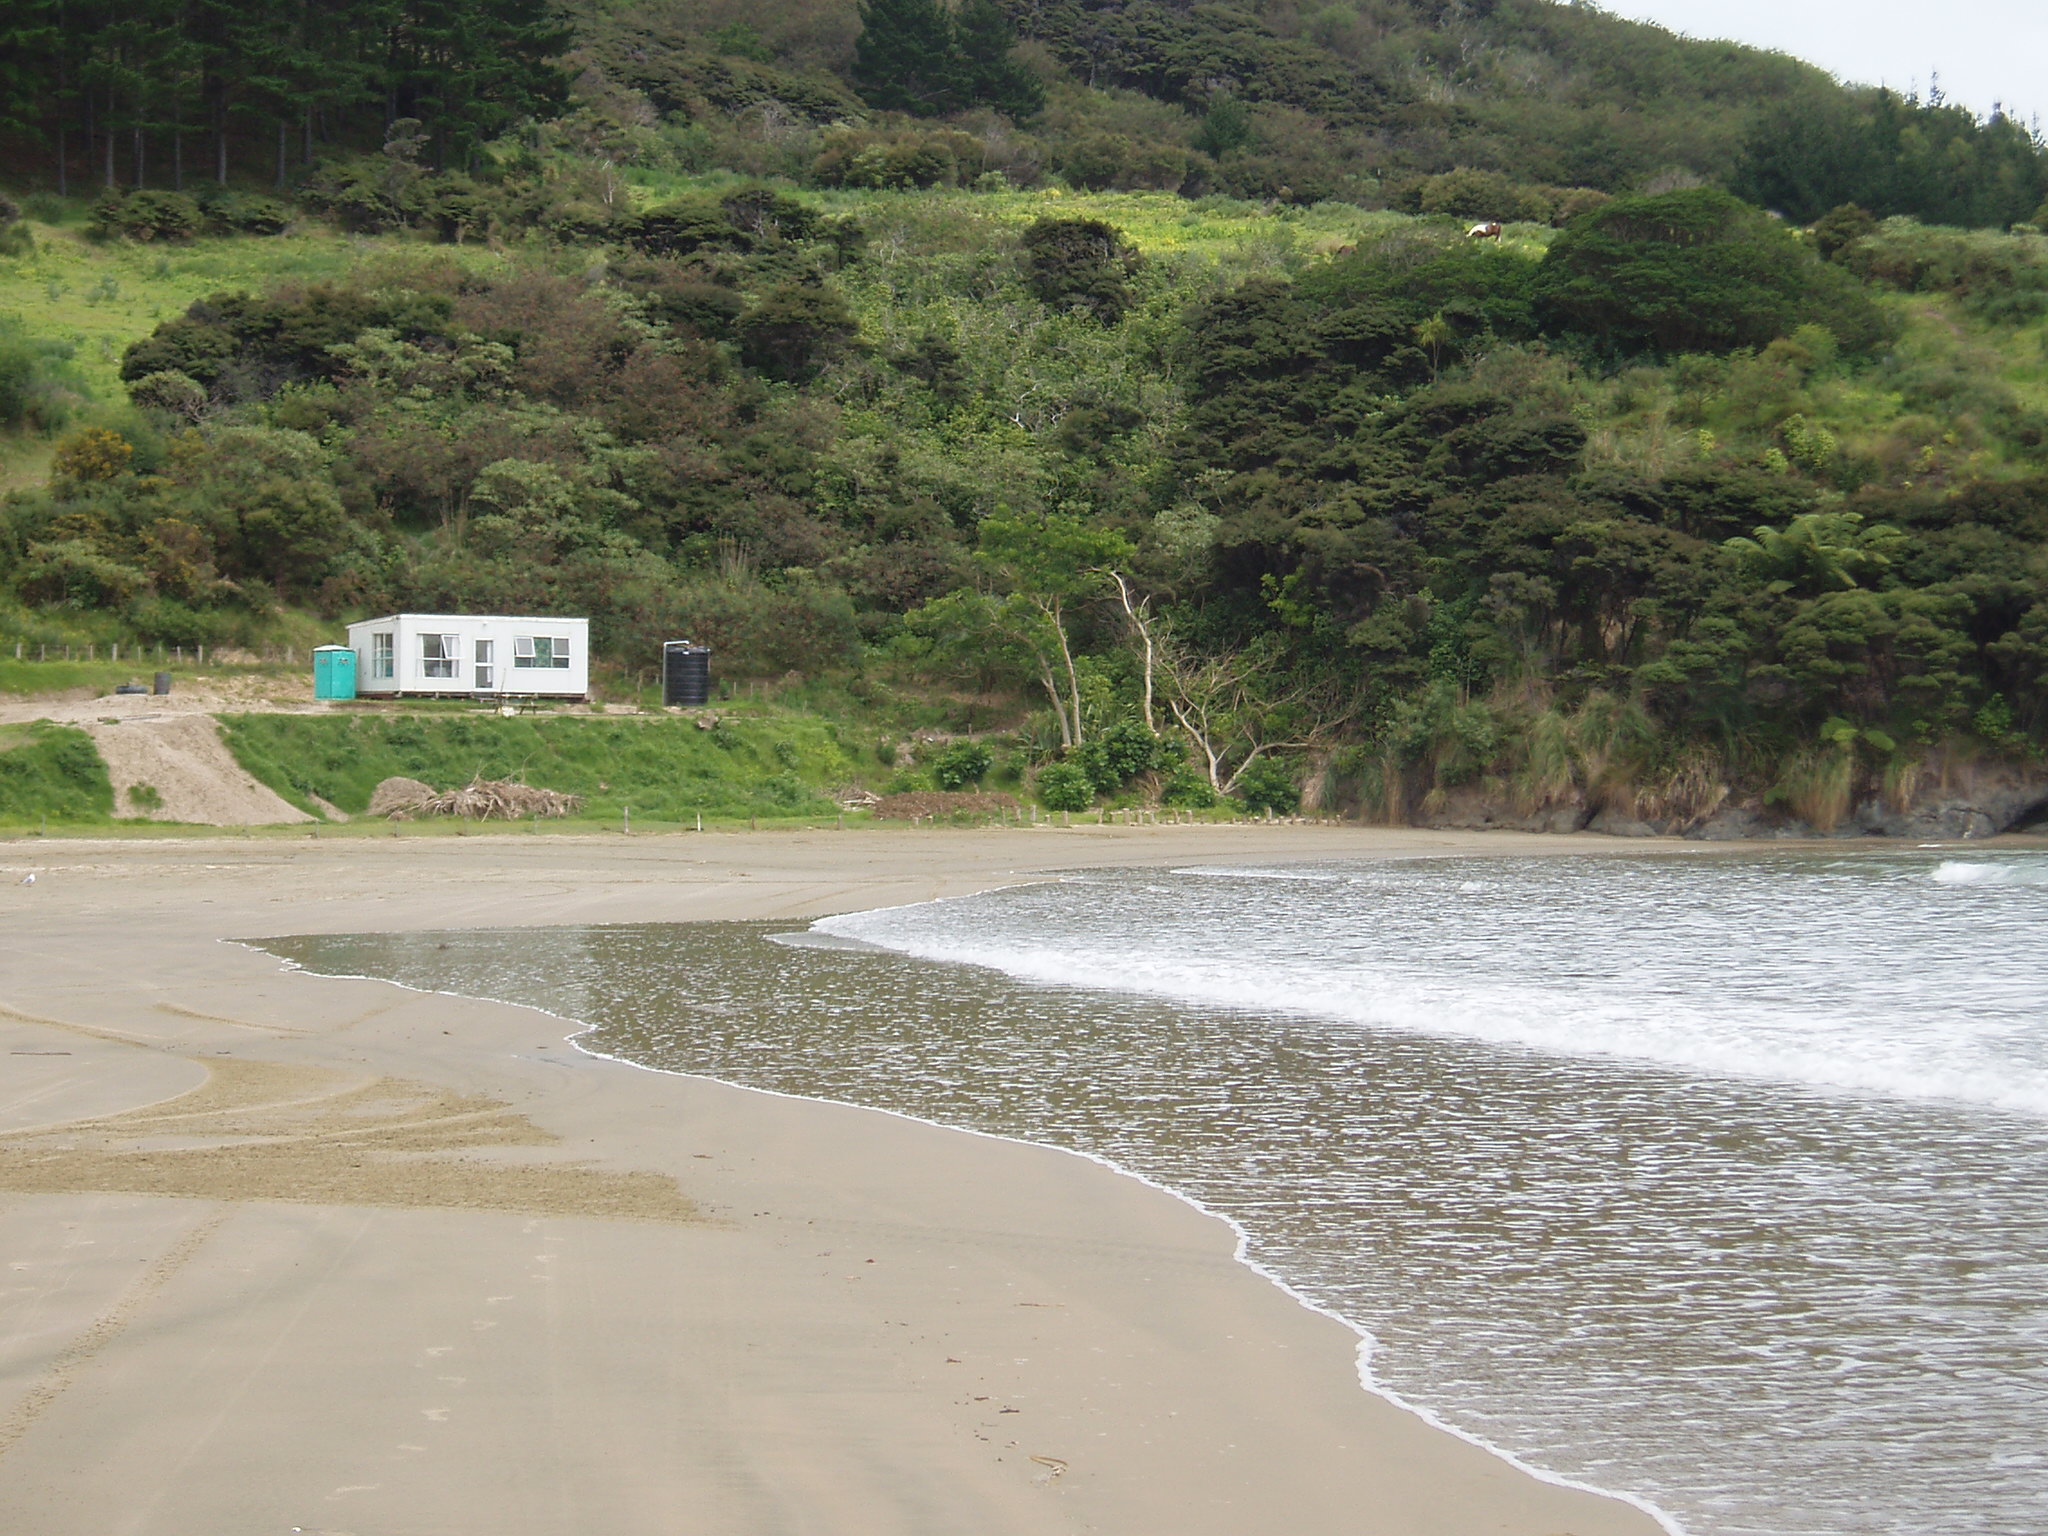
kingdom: Plantae
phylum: Tracheophyta
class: Liliopsida
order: Poales
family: Cyperaceae
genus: Machaerina
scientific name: Machaerina sinclairii
